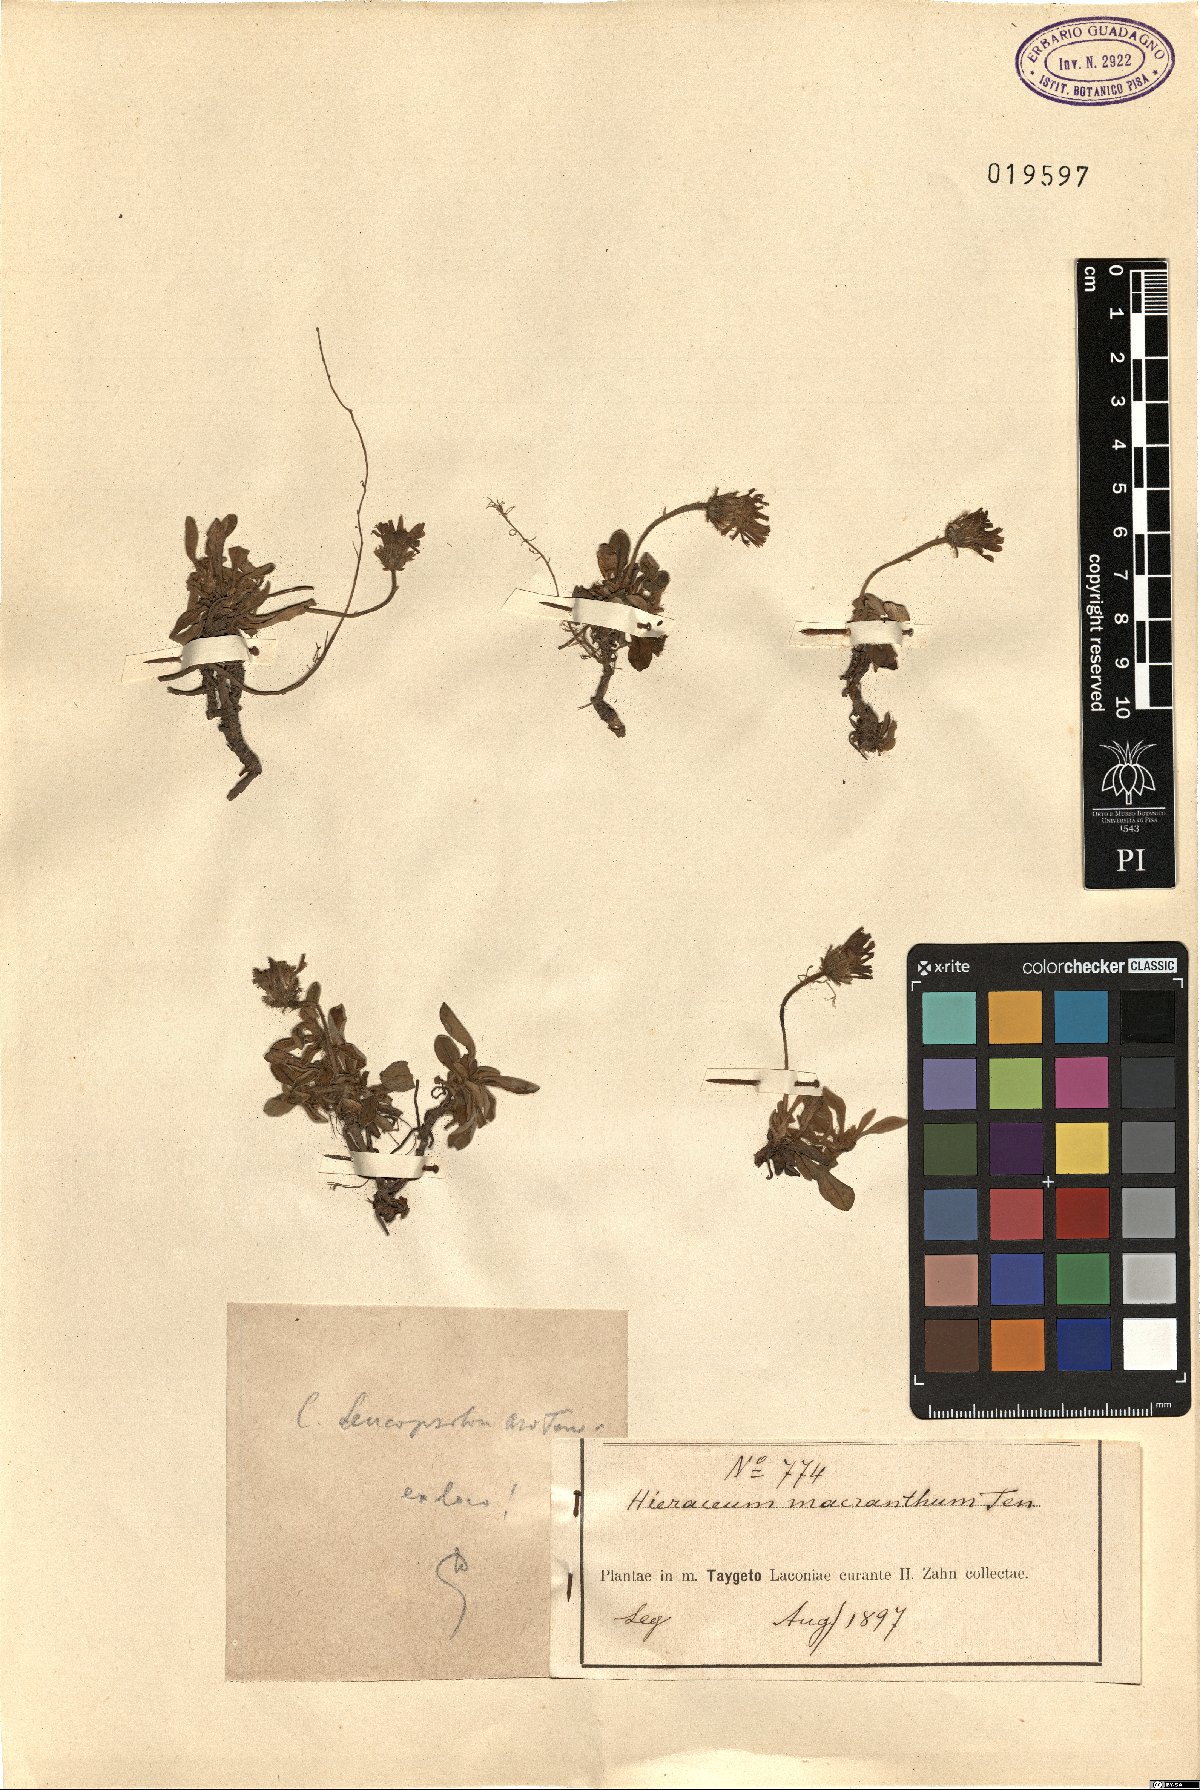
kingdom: Plantae
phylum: Tracheophyta
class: Magnoliopsida
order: Asterales
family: Asteraceae
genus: Pilosella
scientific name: Pilosella hoppeana
